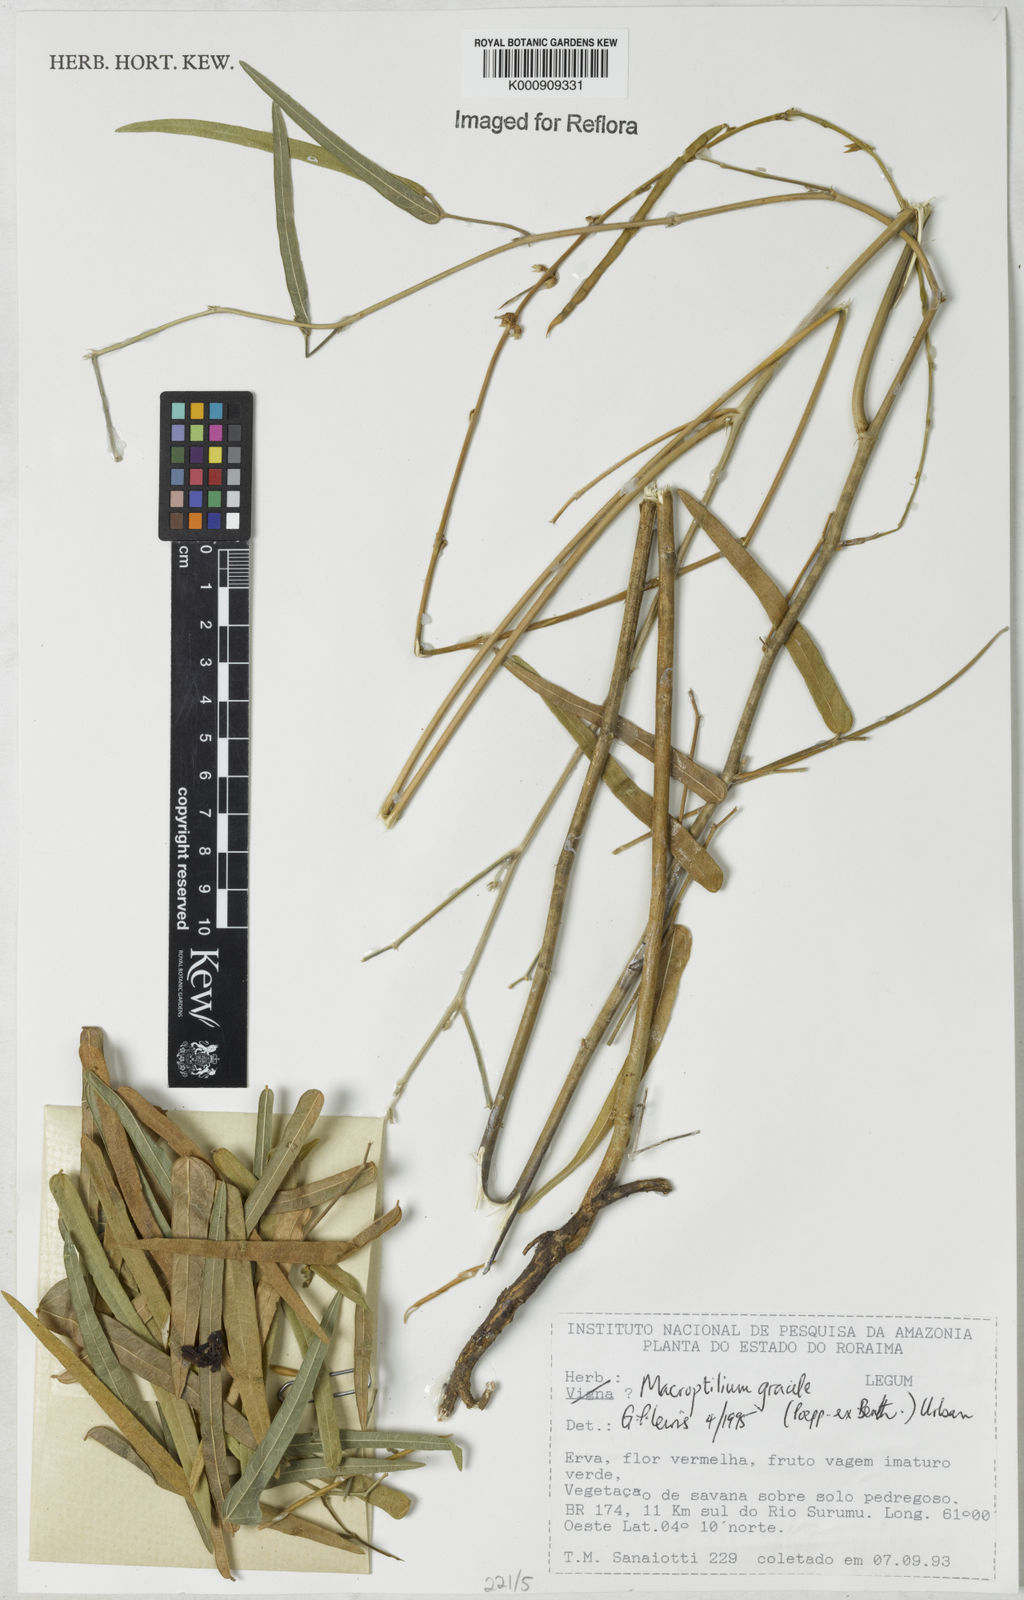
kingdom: Plantae
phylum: Tracheophyta
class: Magnoliopsida
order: Fabales
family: Fabaceae
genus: Macroptilium
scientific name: Macroptilium gracile
